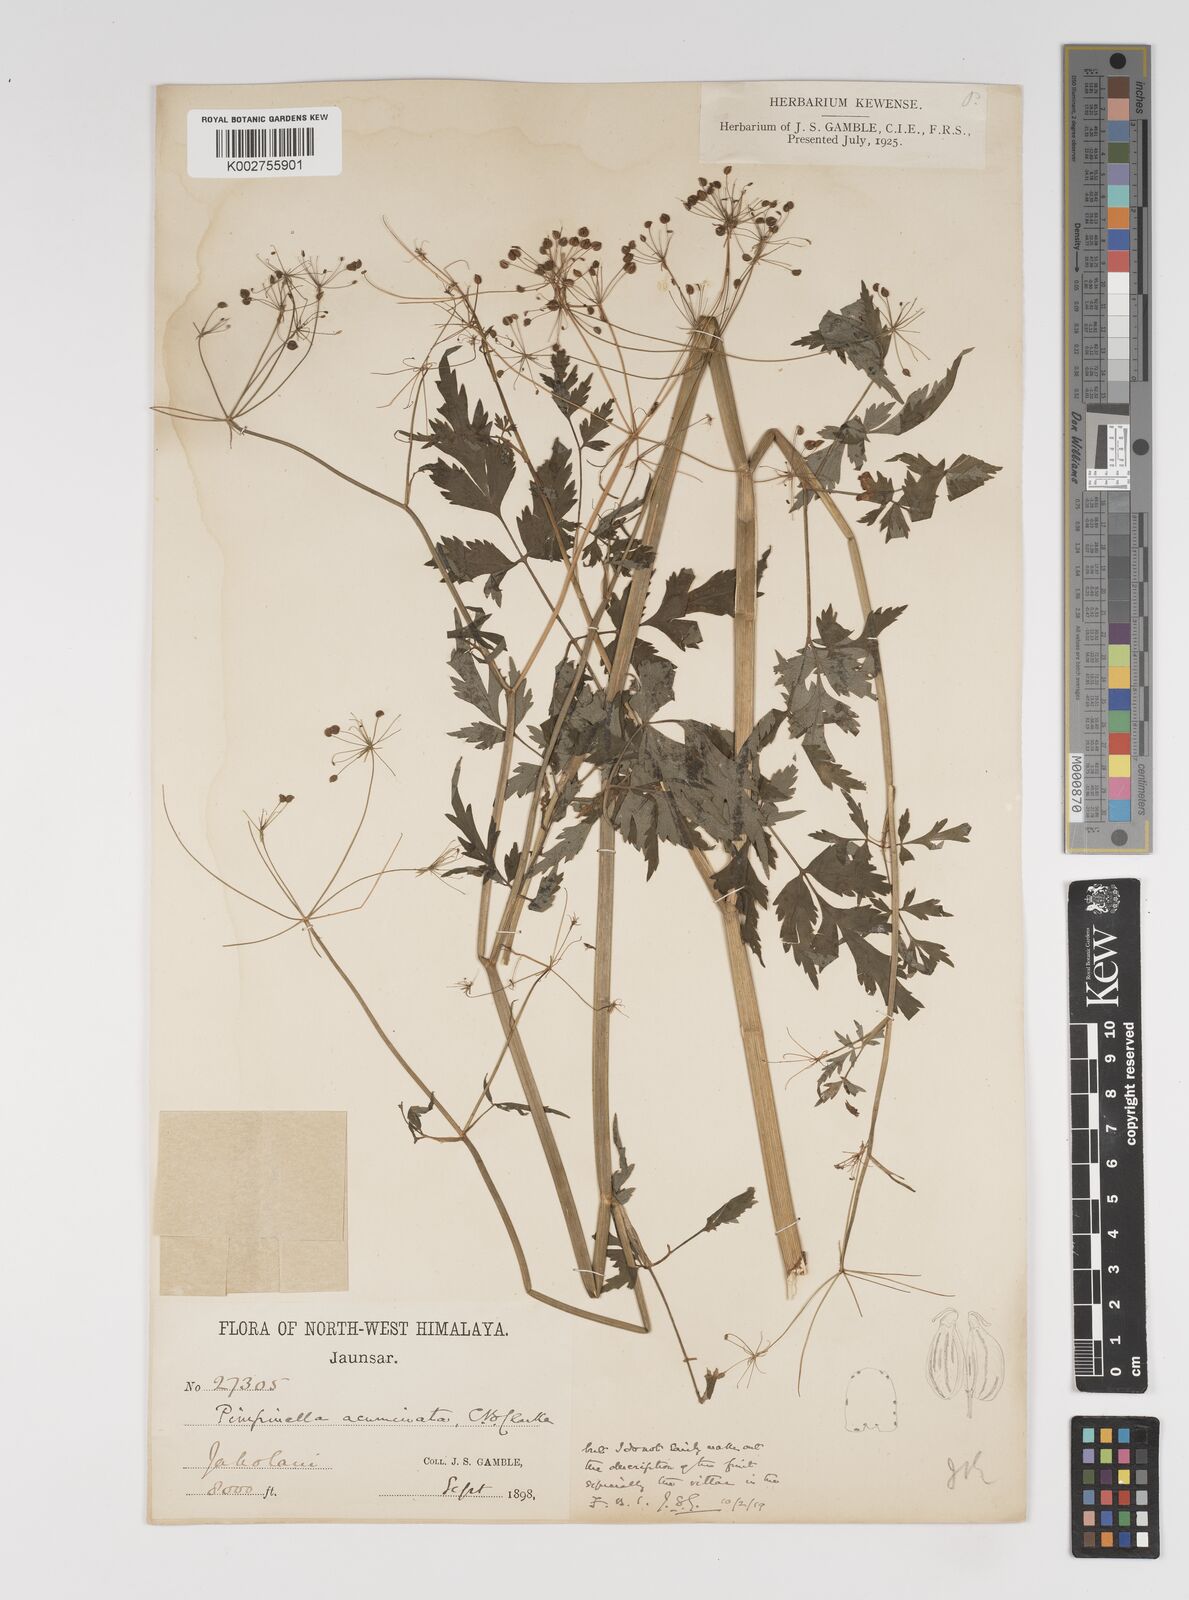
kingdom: Plantae
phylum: Tracheophyta
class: Magnoliopsida
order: Apiales
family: Apiaceae
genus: Pimpinella
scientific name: Pimpinella acuminata
